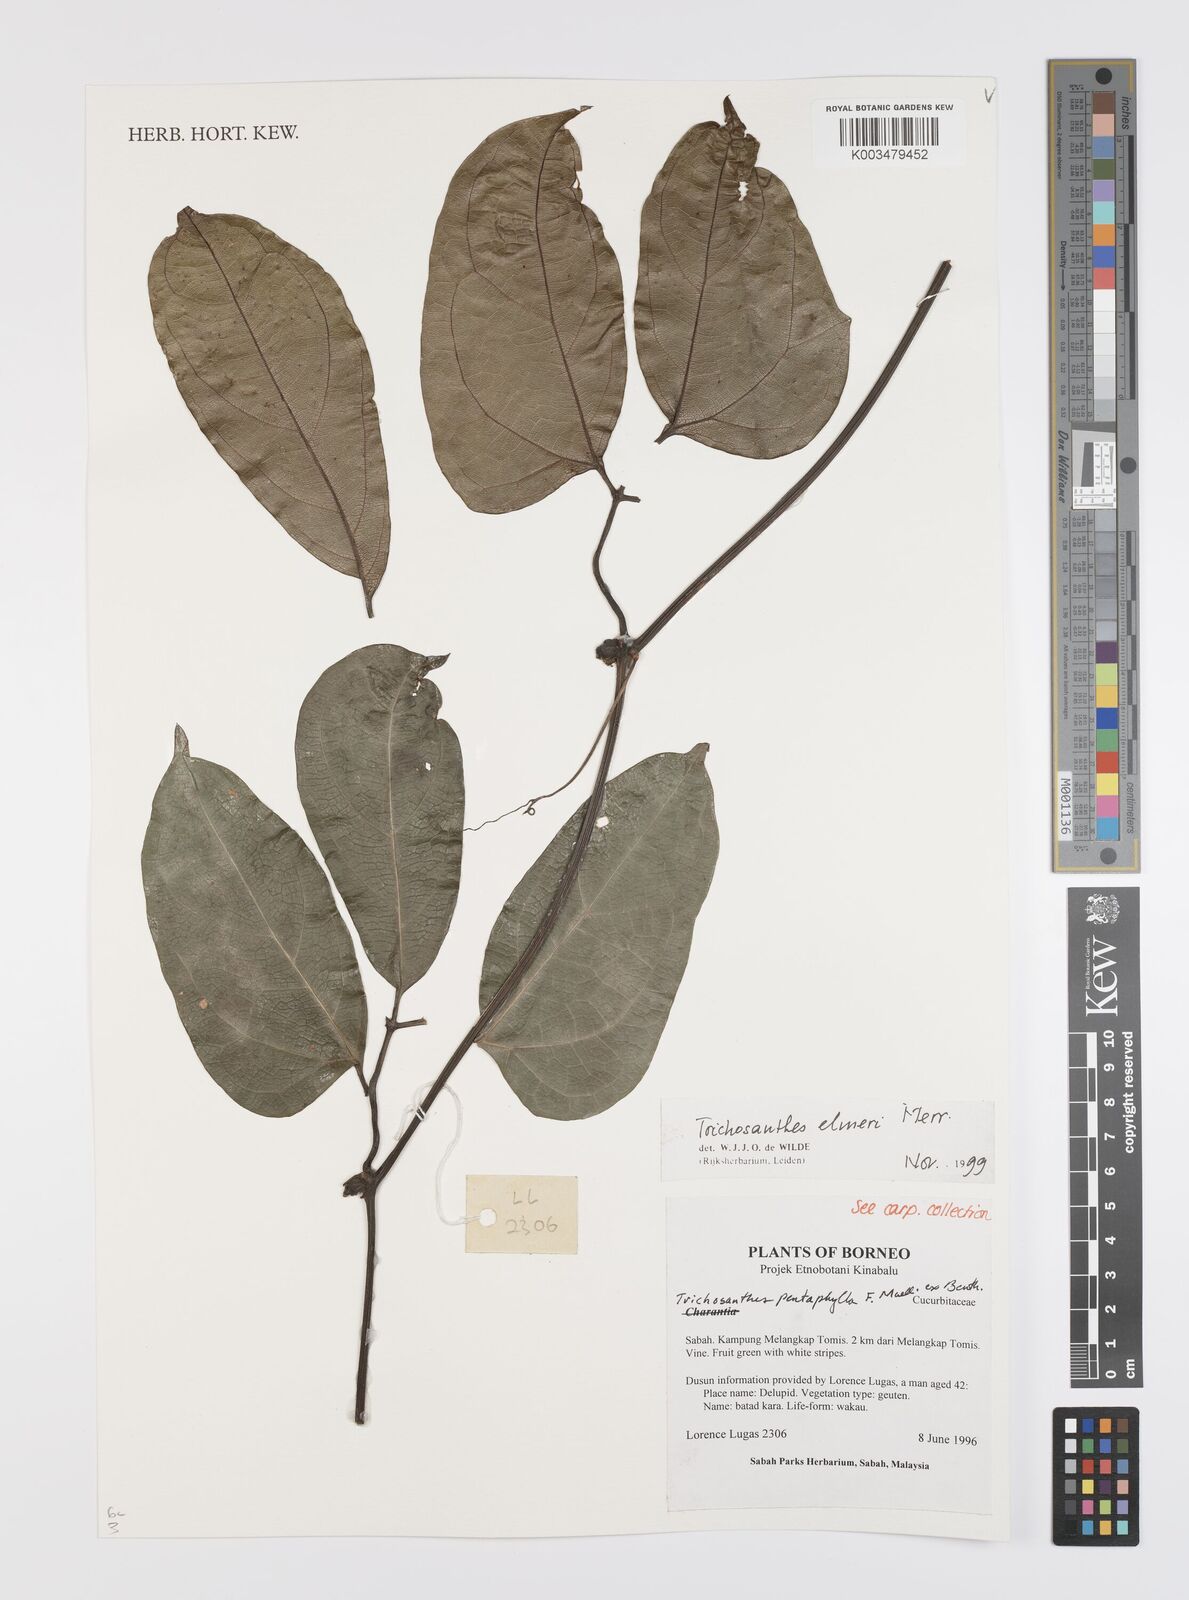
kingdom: Plantae
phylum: Tracheophyta
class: Magnoliopsida
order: Cucurbitales
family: Cucurbitaceae
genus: Trichosanthes
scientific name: Trichosanthes elmeri
